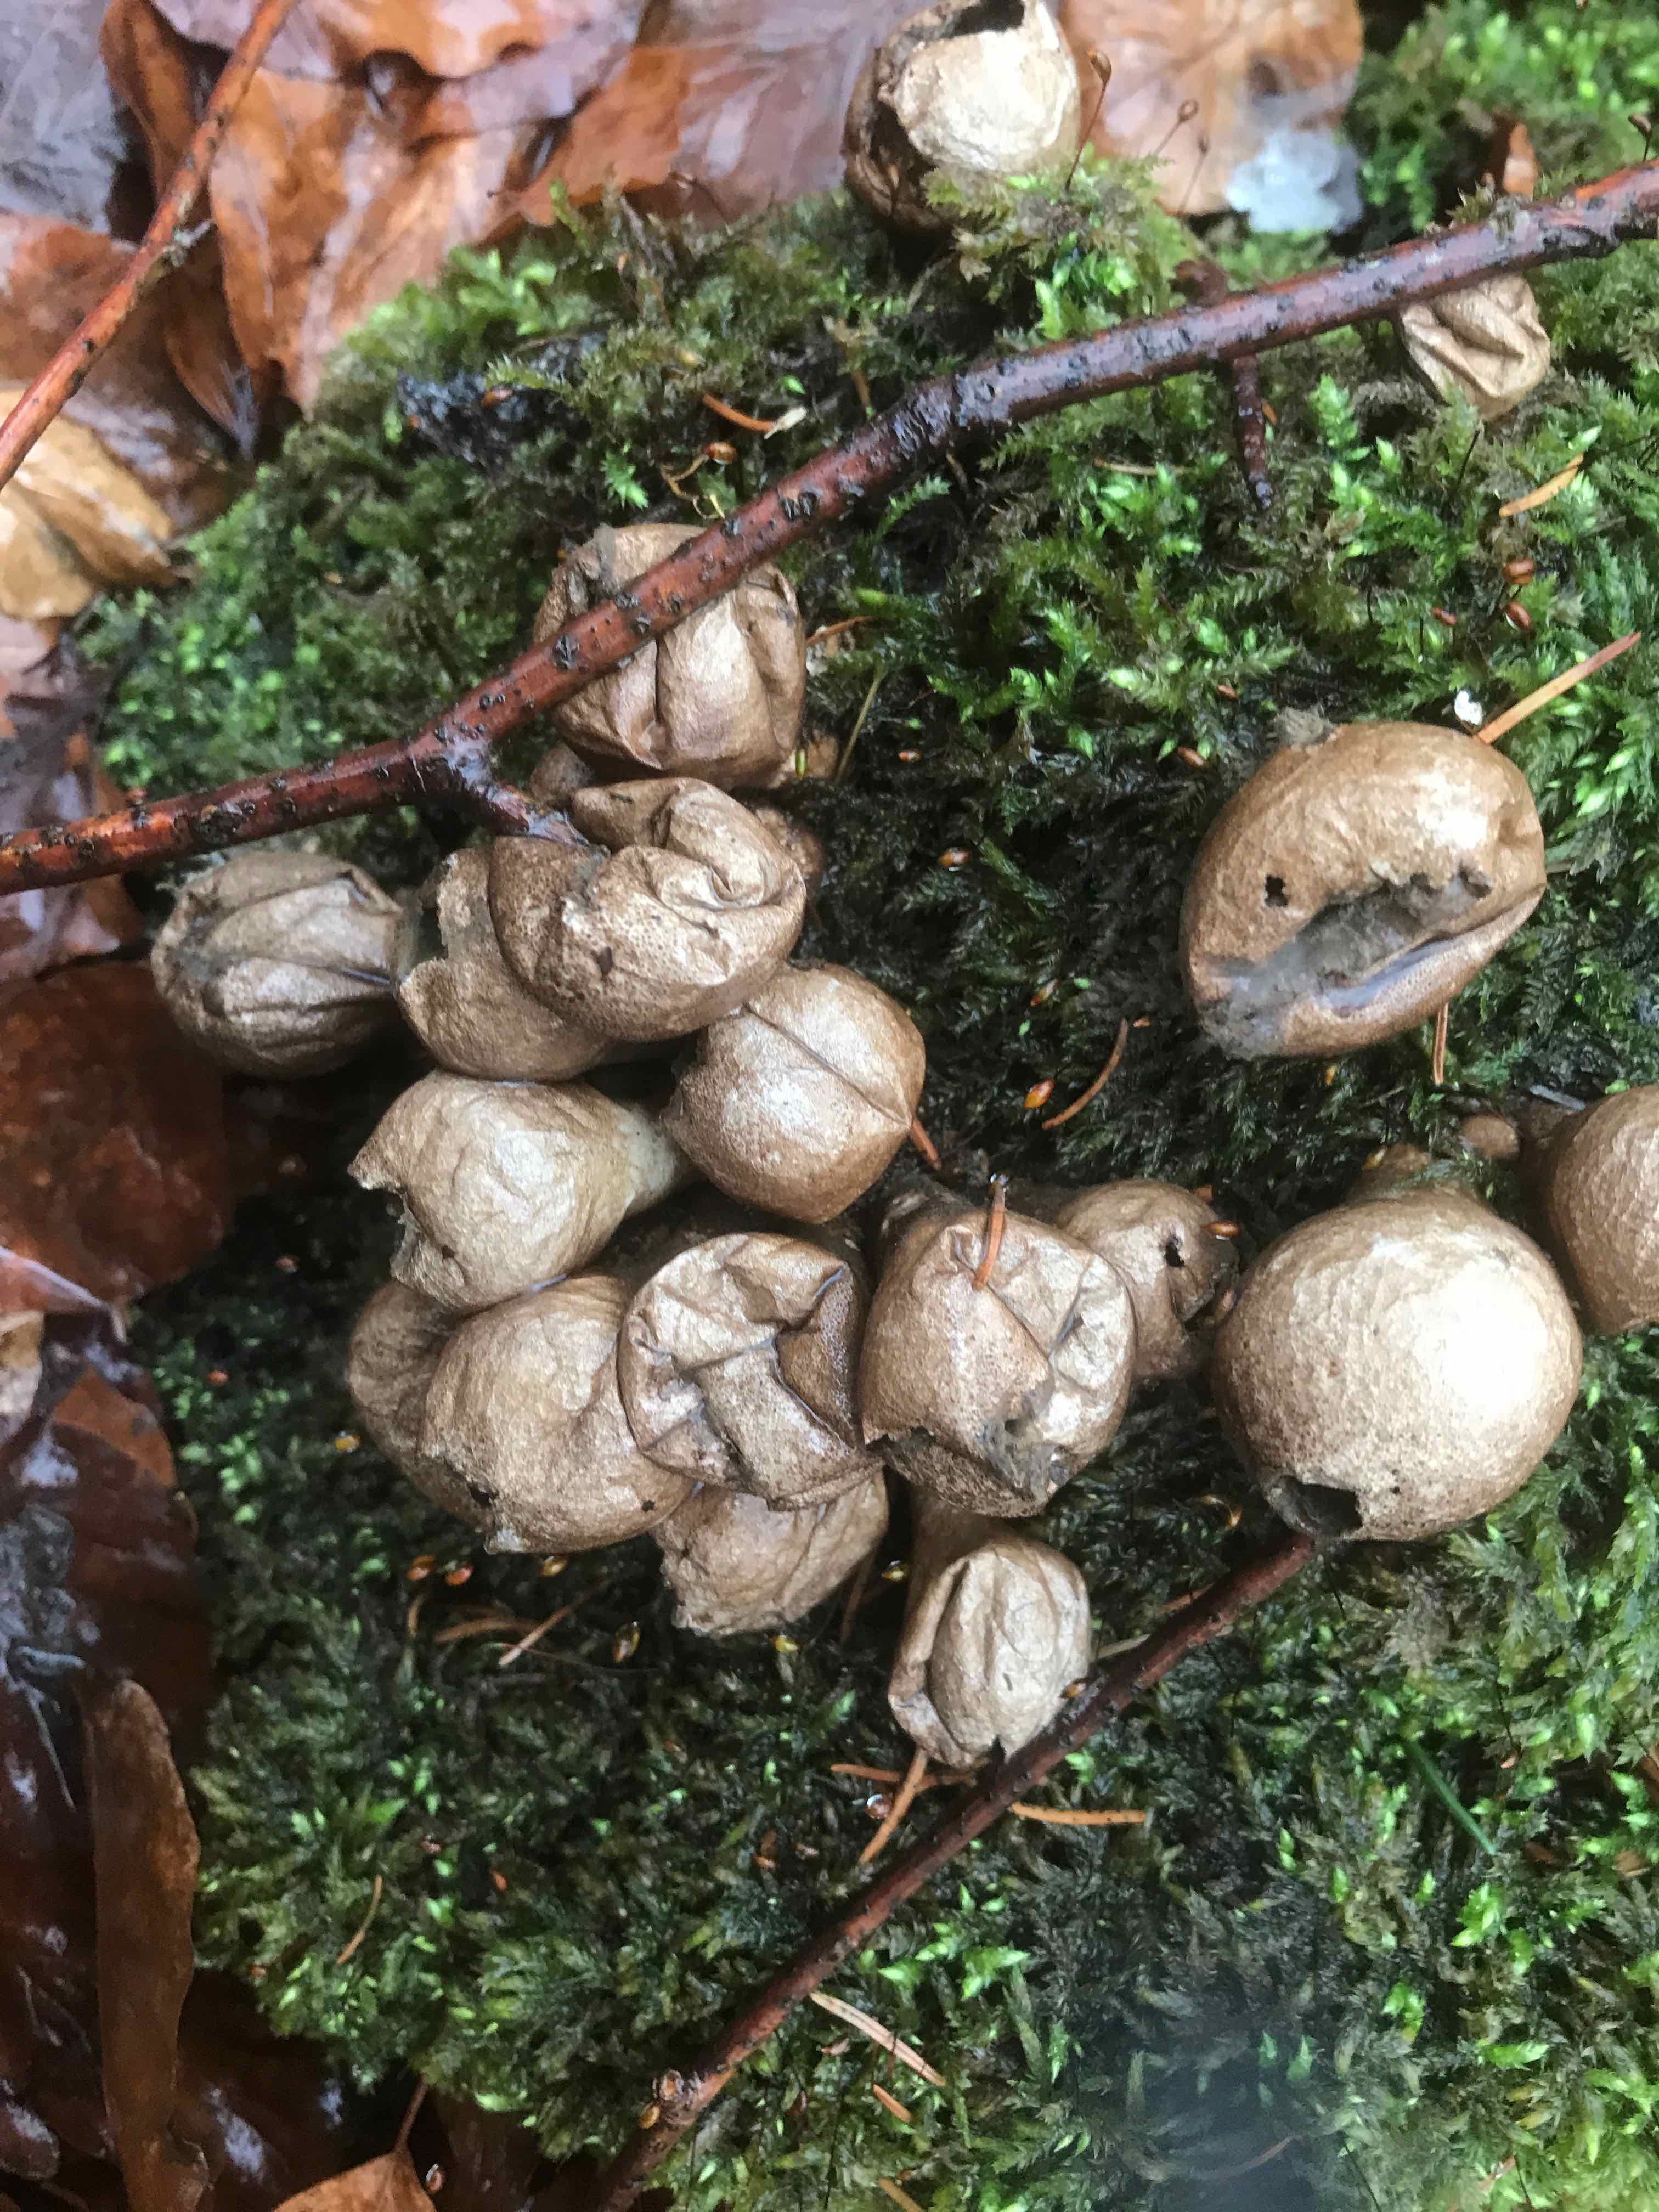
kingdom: Fungi
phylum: Basidiomycota
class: Agaricomycetes
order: Agaricales
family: Lycoperdaceae
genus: Apioperdon
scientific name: Apioperdon pyriforme
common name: pære-støvbold
